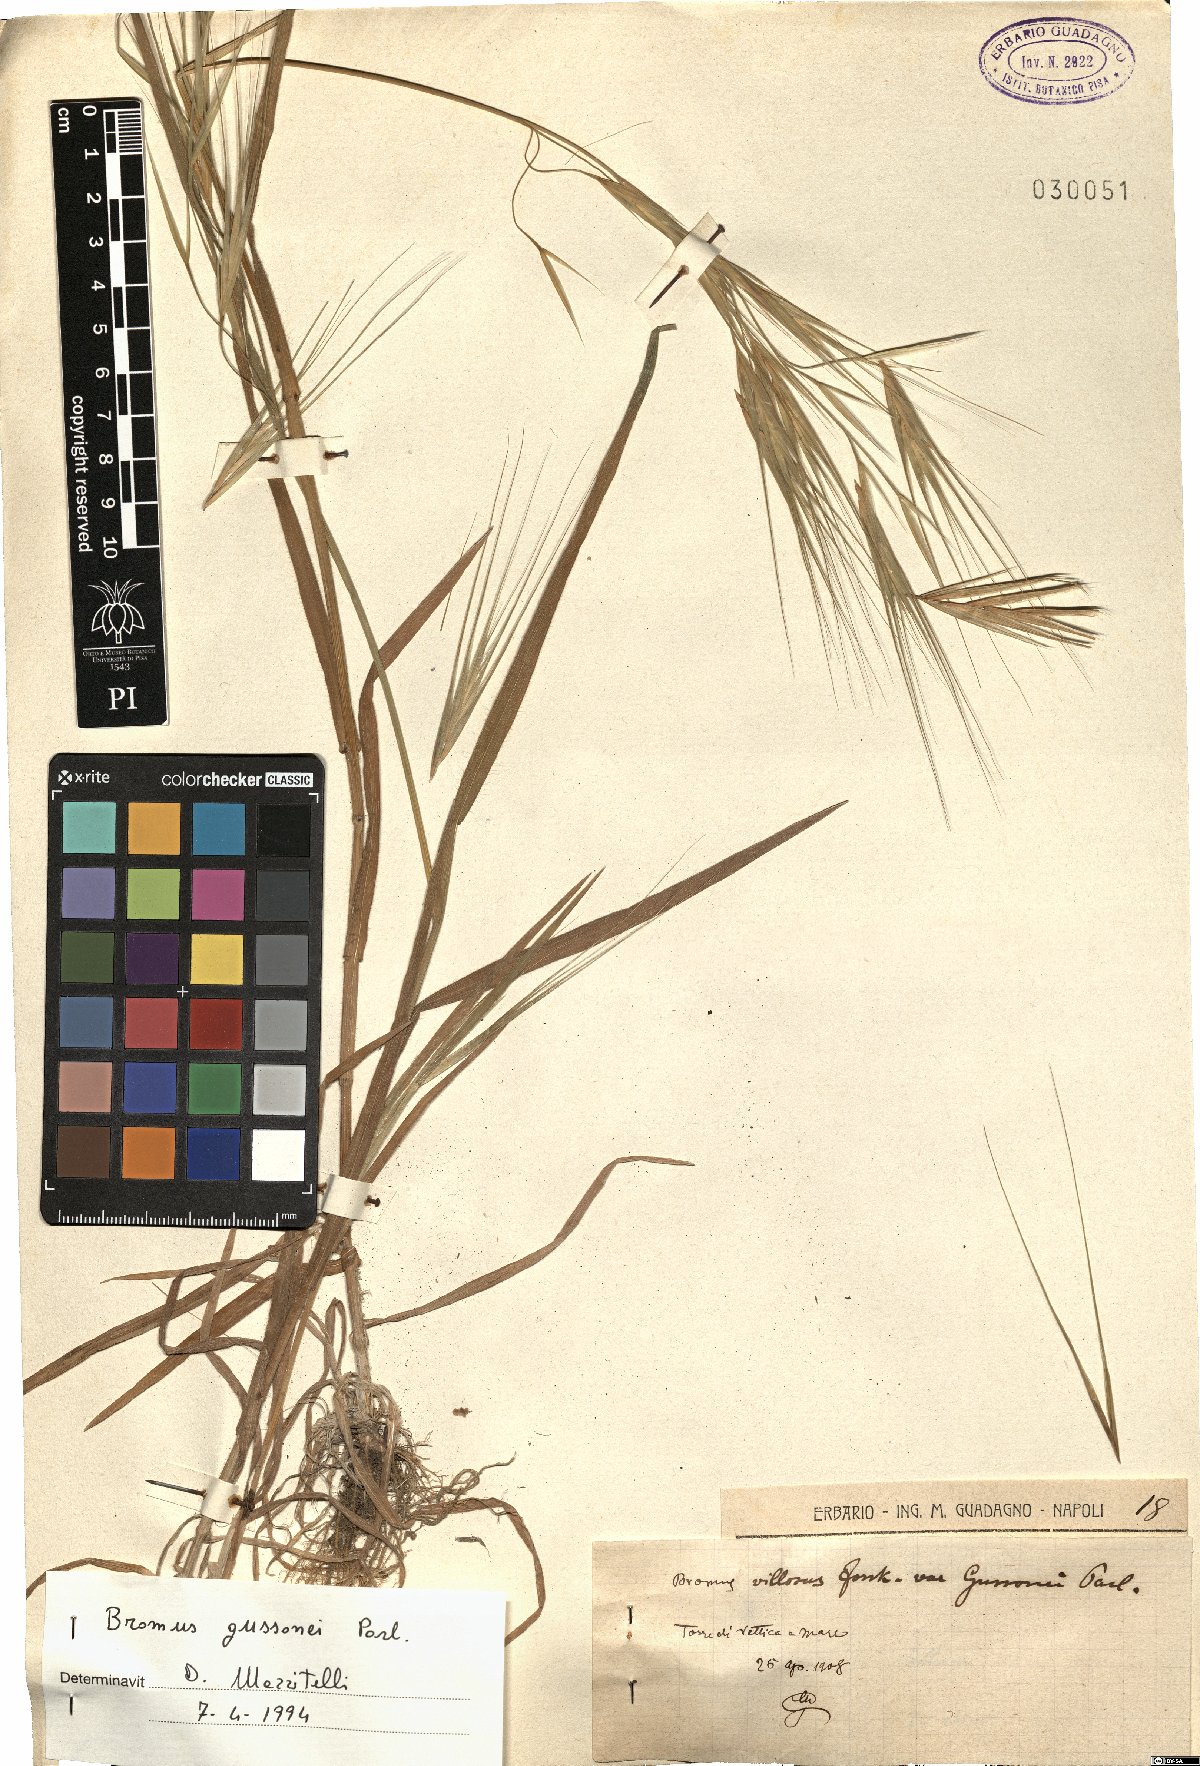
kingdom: Plantae
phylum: Tracheophyta
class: Liliopsida
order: Poales
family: Poaceae
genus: Bromus
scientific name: Bromus diandrus
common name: Ripgut brome
